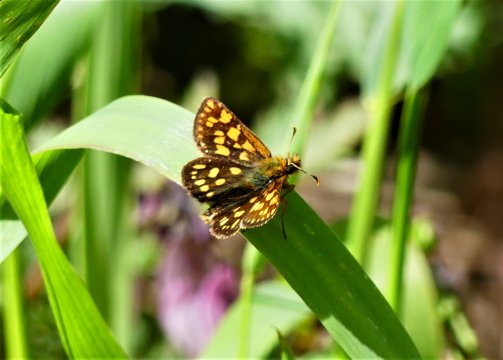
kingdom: Animalia
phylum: Arthropoda
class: Insecta
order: Lepidoptera
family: Hesperiidae
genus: Carterocephalus
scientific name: Carterocephalus skada
